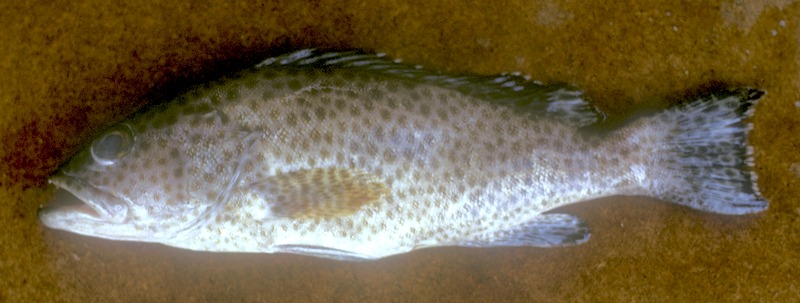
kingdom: Animalia
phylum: Chordata
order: Perciformes
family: Serranidae
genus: Epinephelus
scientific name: Epinephelus tauvina
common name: Greasy grouper
